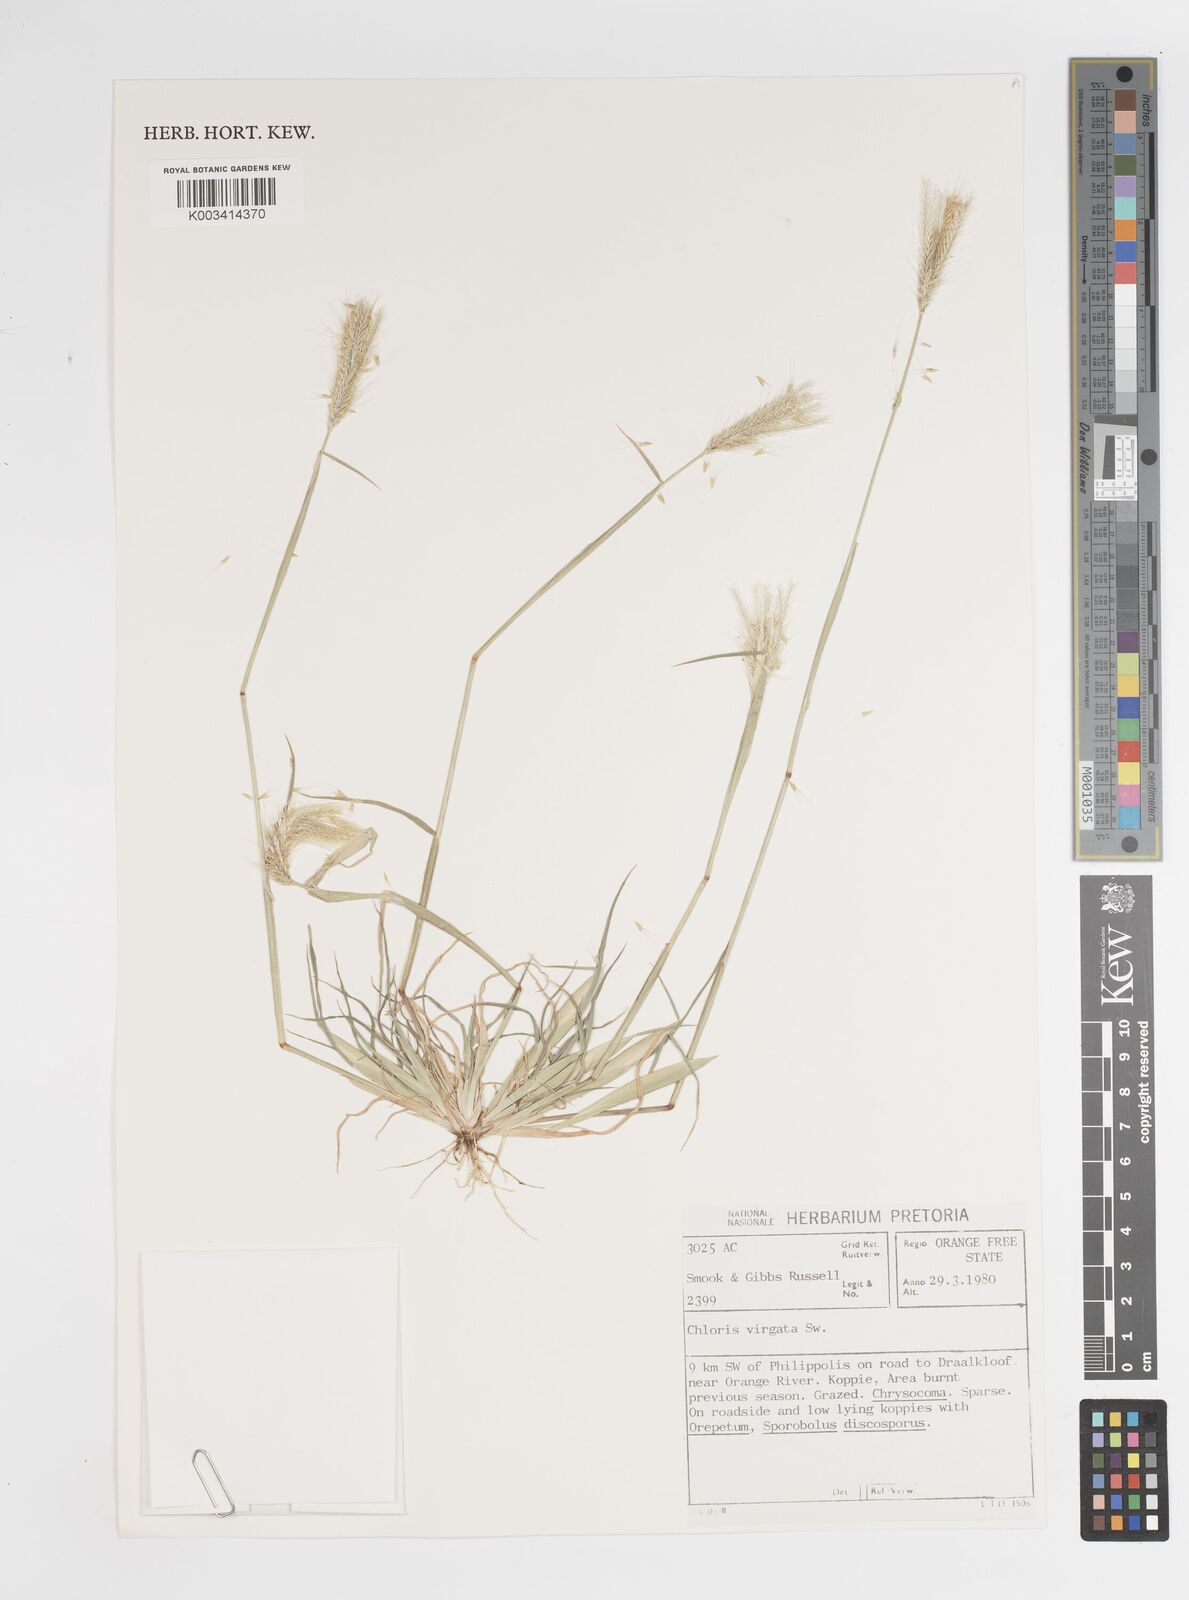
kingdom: Plantae
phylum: Tracheophyta
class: Liliopsida
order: Poales
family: Poaceae
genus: Chloris
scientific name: Chloris virgata
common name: Feathery rhodes-grass
